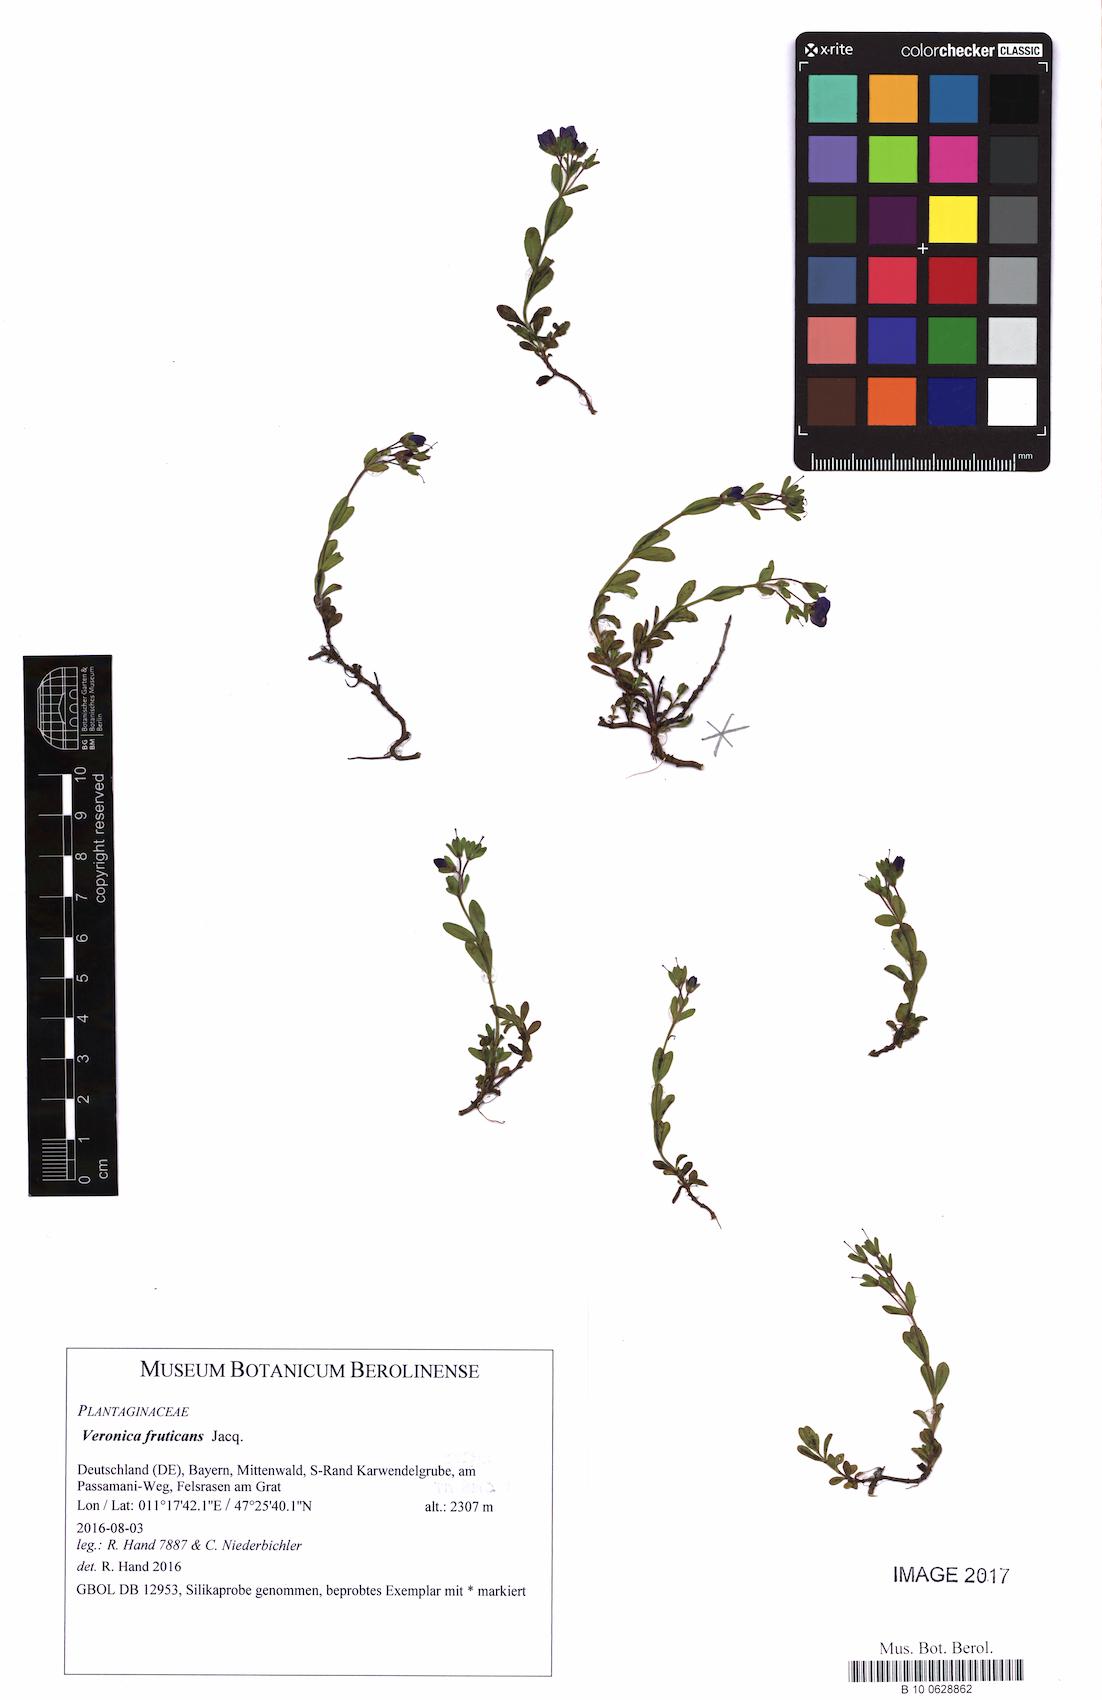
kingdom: Plantae
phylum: Tracheophyta
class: Magnoliopsida
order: Lamiales
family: Plantaginaceae
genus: Veronica
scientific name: Veronica fruticans
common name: Rock speedwell
